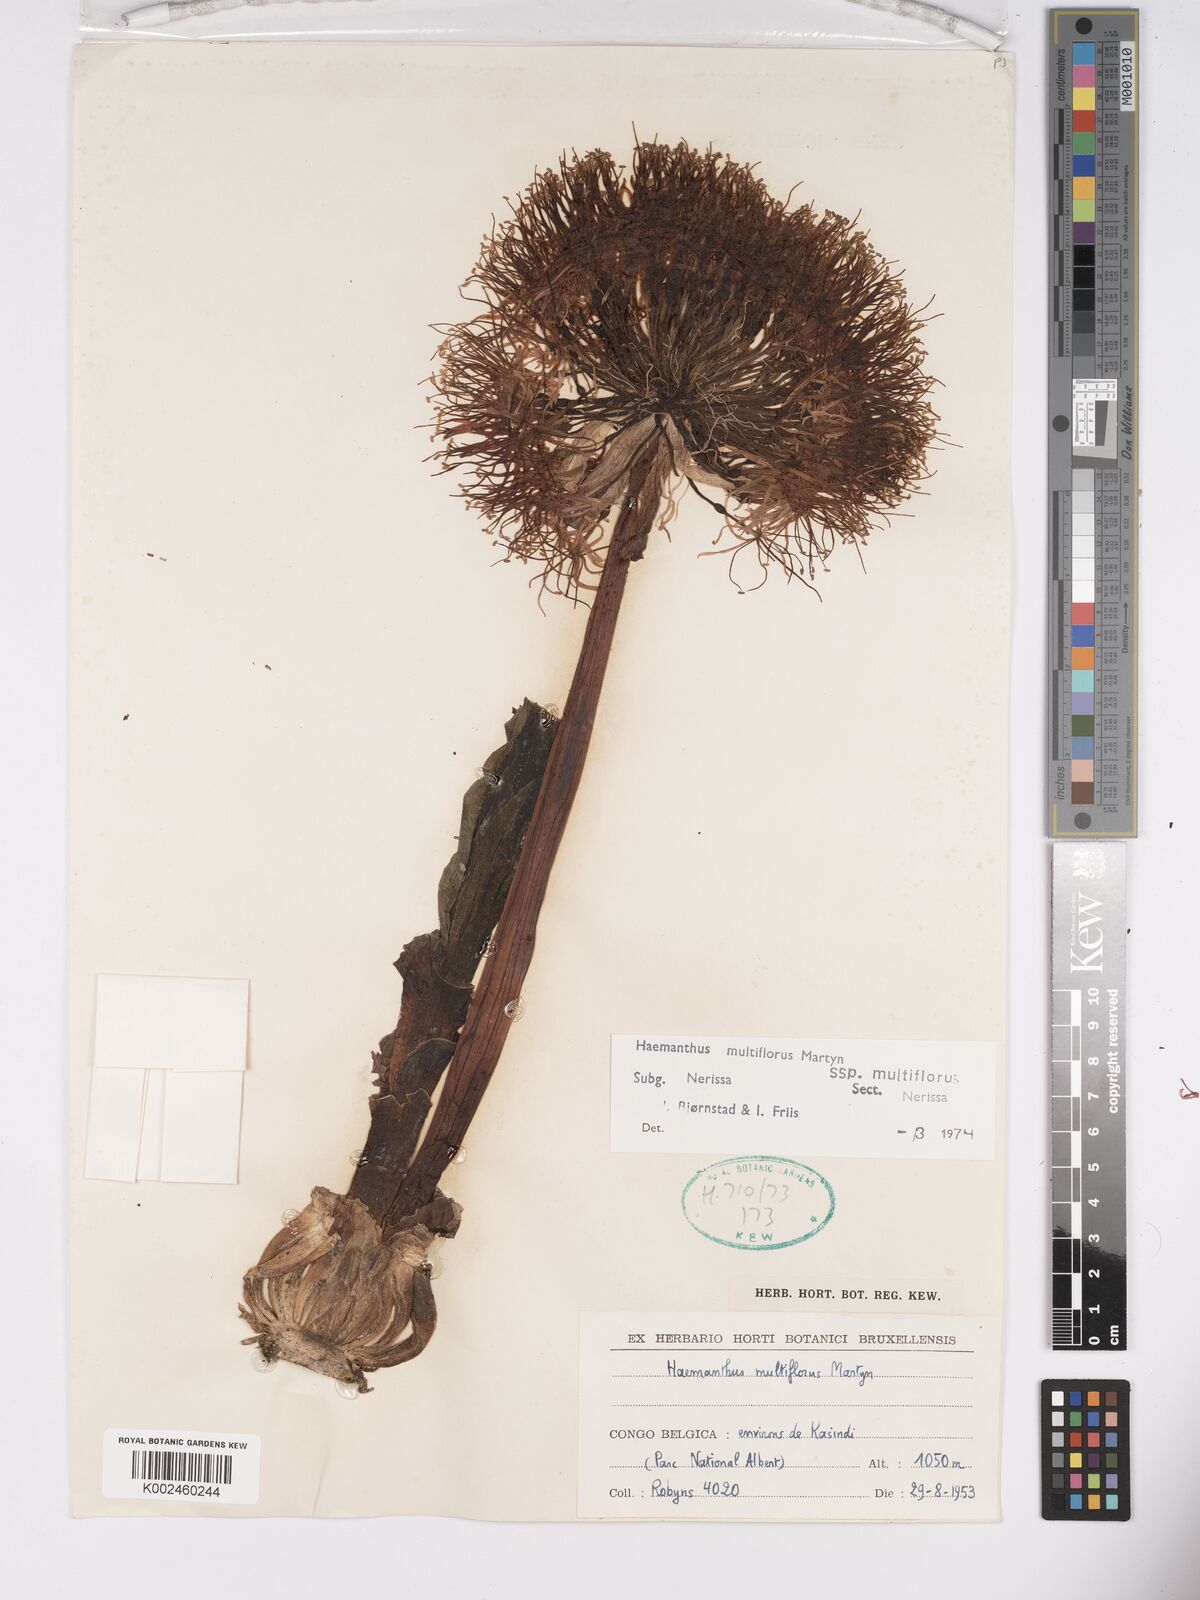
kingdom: Plantae
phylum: Tracheophyta
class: Liliopsida
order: Asparagales
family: Amaryllidaceae
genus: Scadoxus
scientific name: Scadoxus multiflorus
